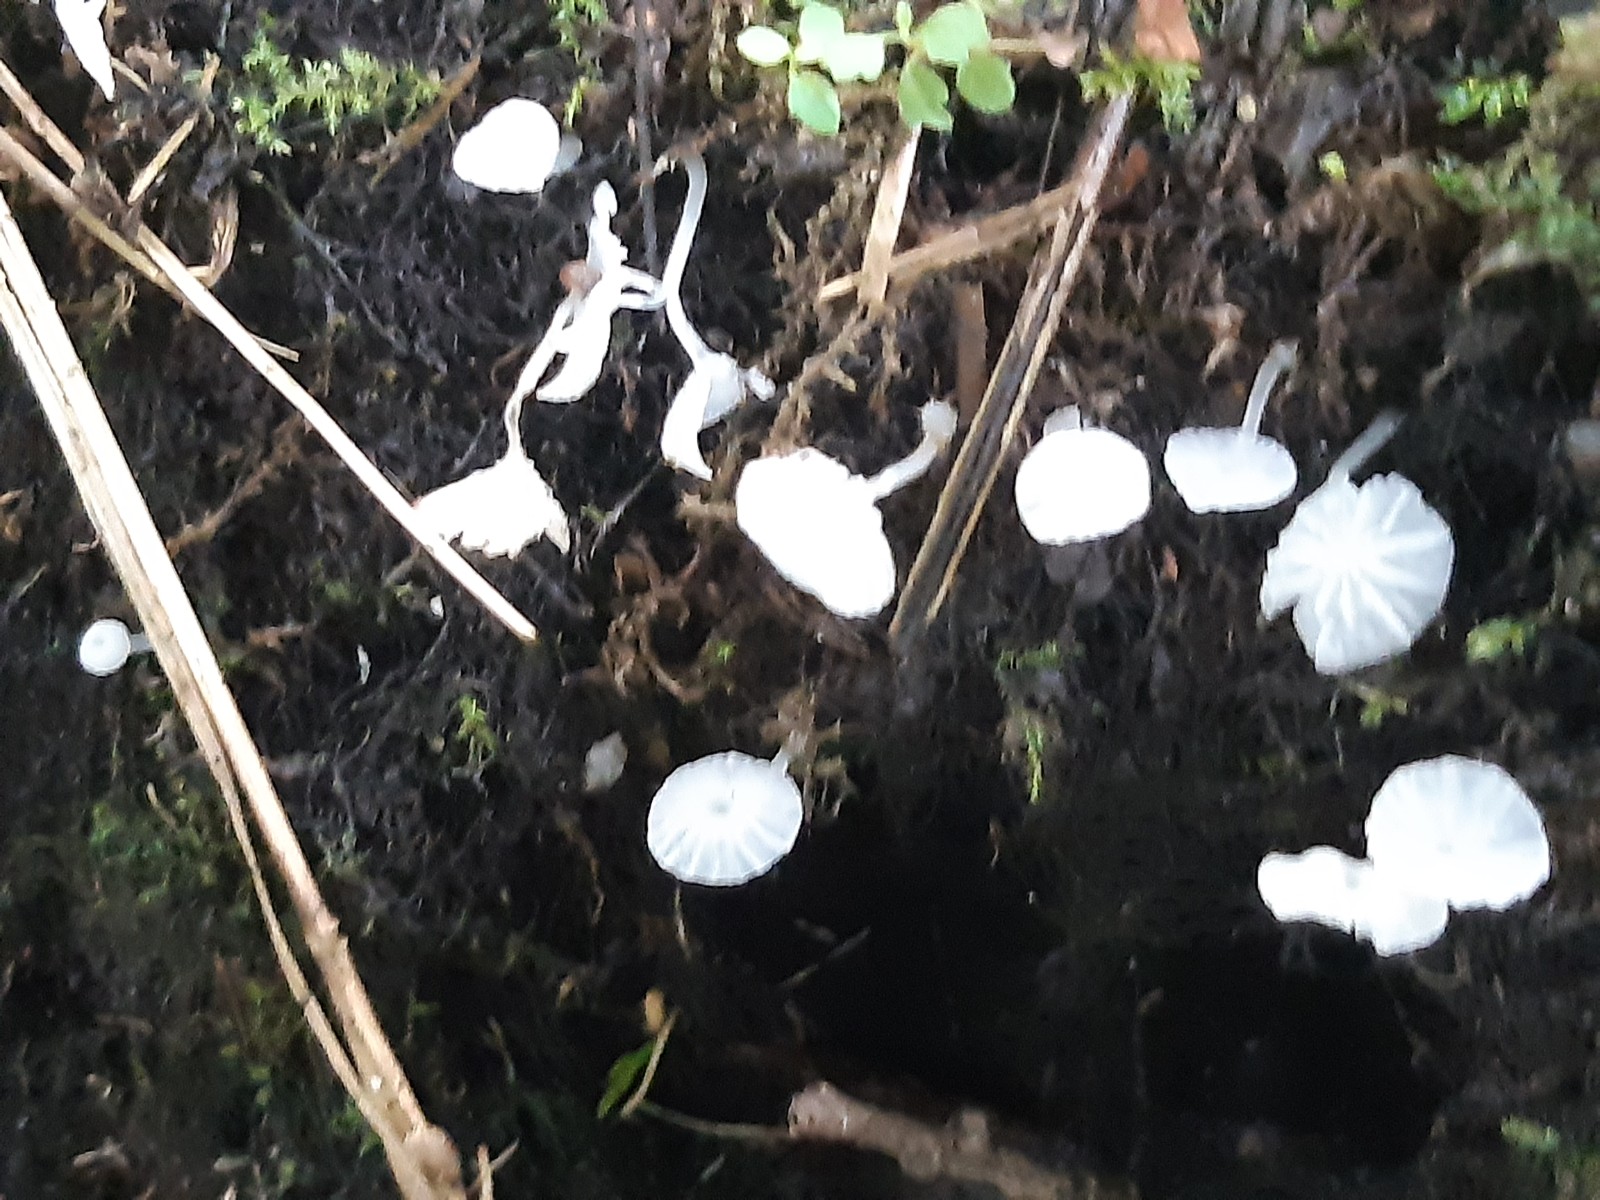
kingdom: Fungi
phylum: Basidiomycota
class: Agaricomycetes
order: Agaricales
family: Tricholomataceae
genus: Delicatula
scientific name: Delicatula integrella
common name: slørhuesvamp
